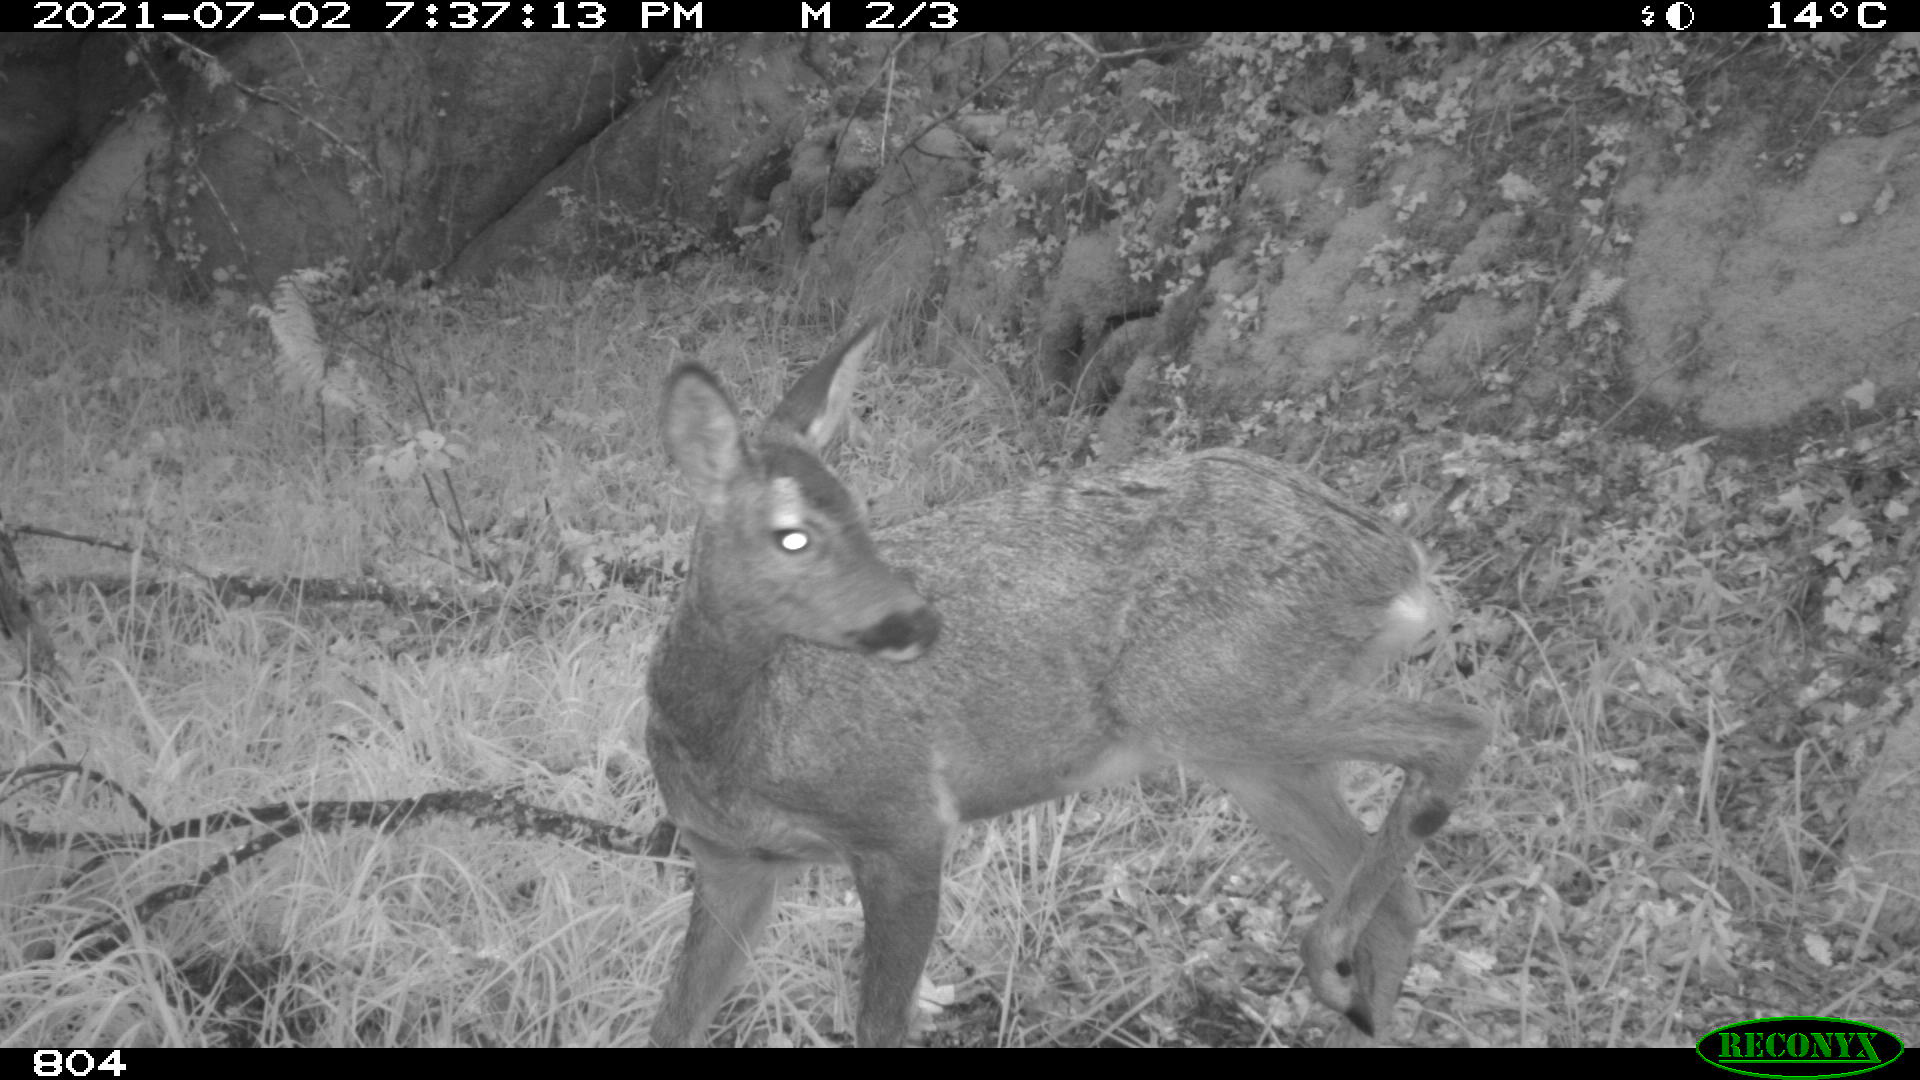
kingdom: Animalia
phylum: Chordata
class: Mammalia
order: Artiodactyla
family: Cervidae
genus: Capreolus
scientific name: Capreolus capreolus
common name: Western roe deer
